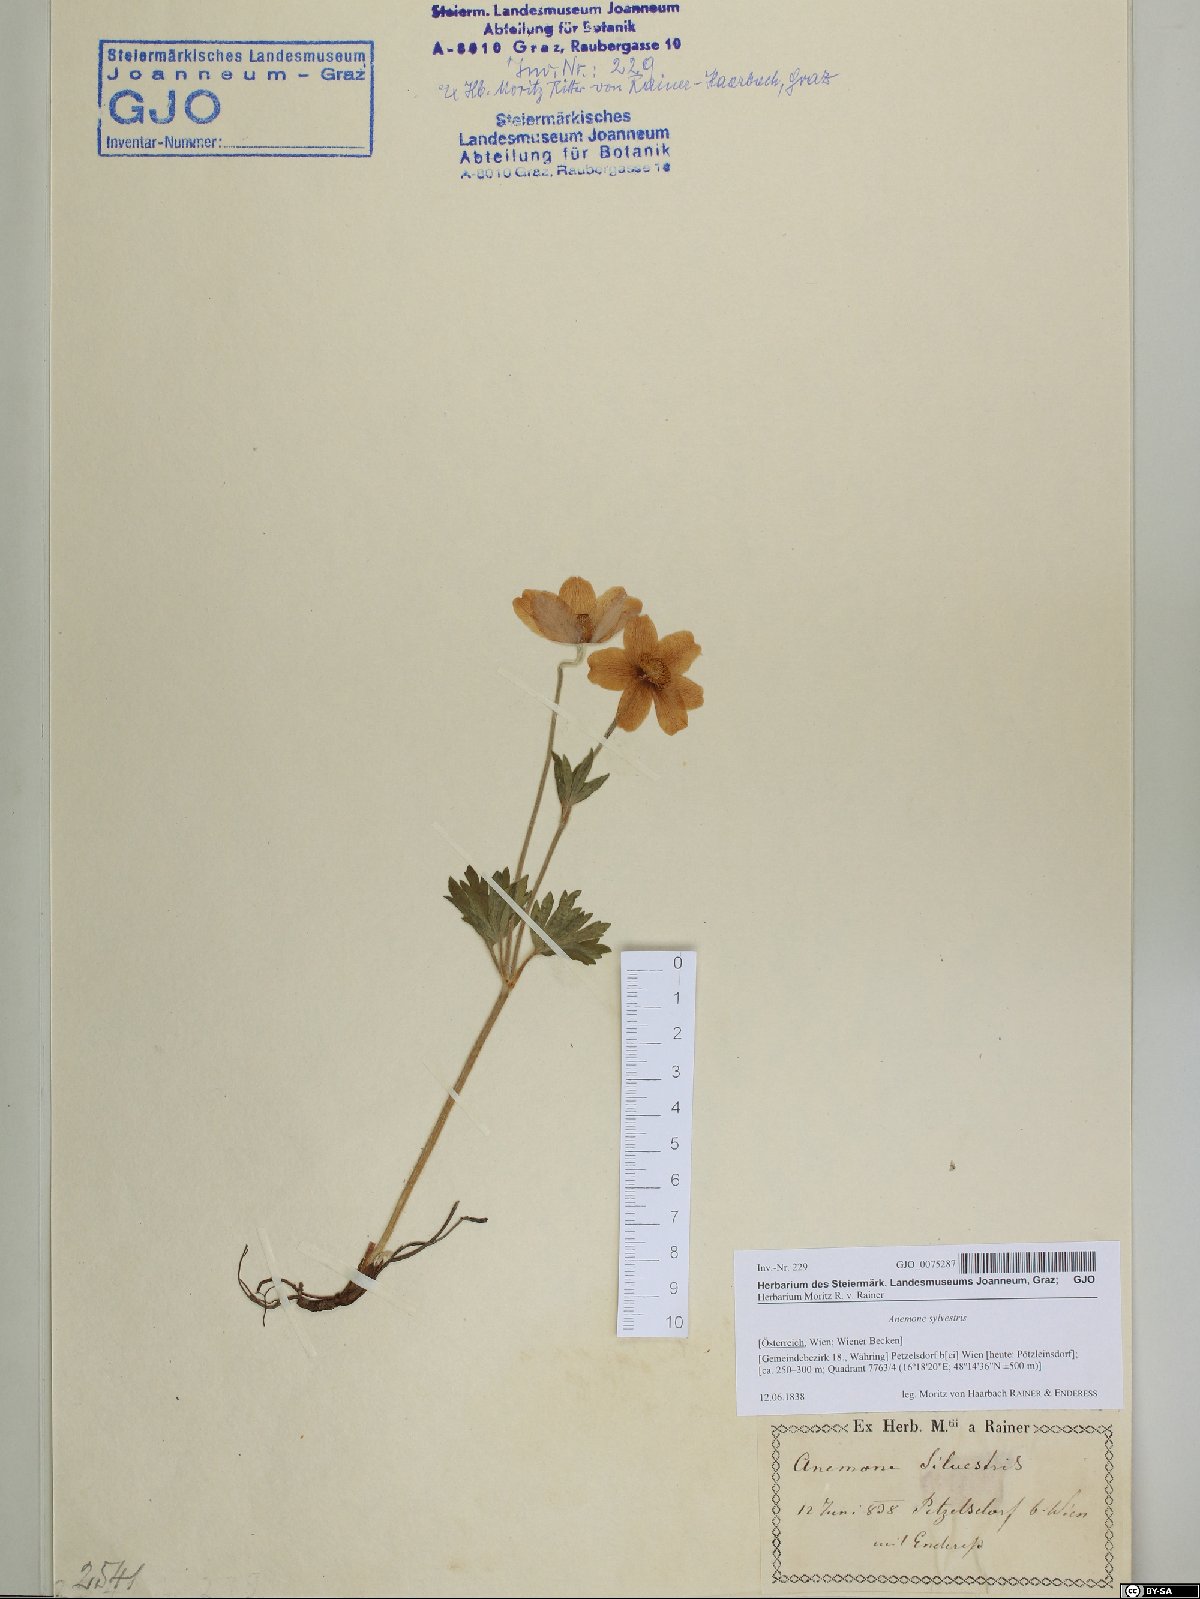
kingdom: Plantae
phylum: Tracheophyta
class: Magnoliopsida
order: Ranunculales
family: Ranunculaceae
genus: Anemone
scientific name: Anemone sylvestris
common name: Snowdrop anemone
